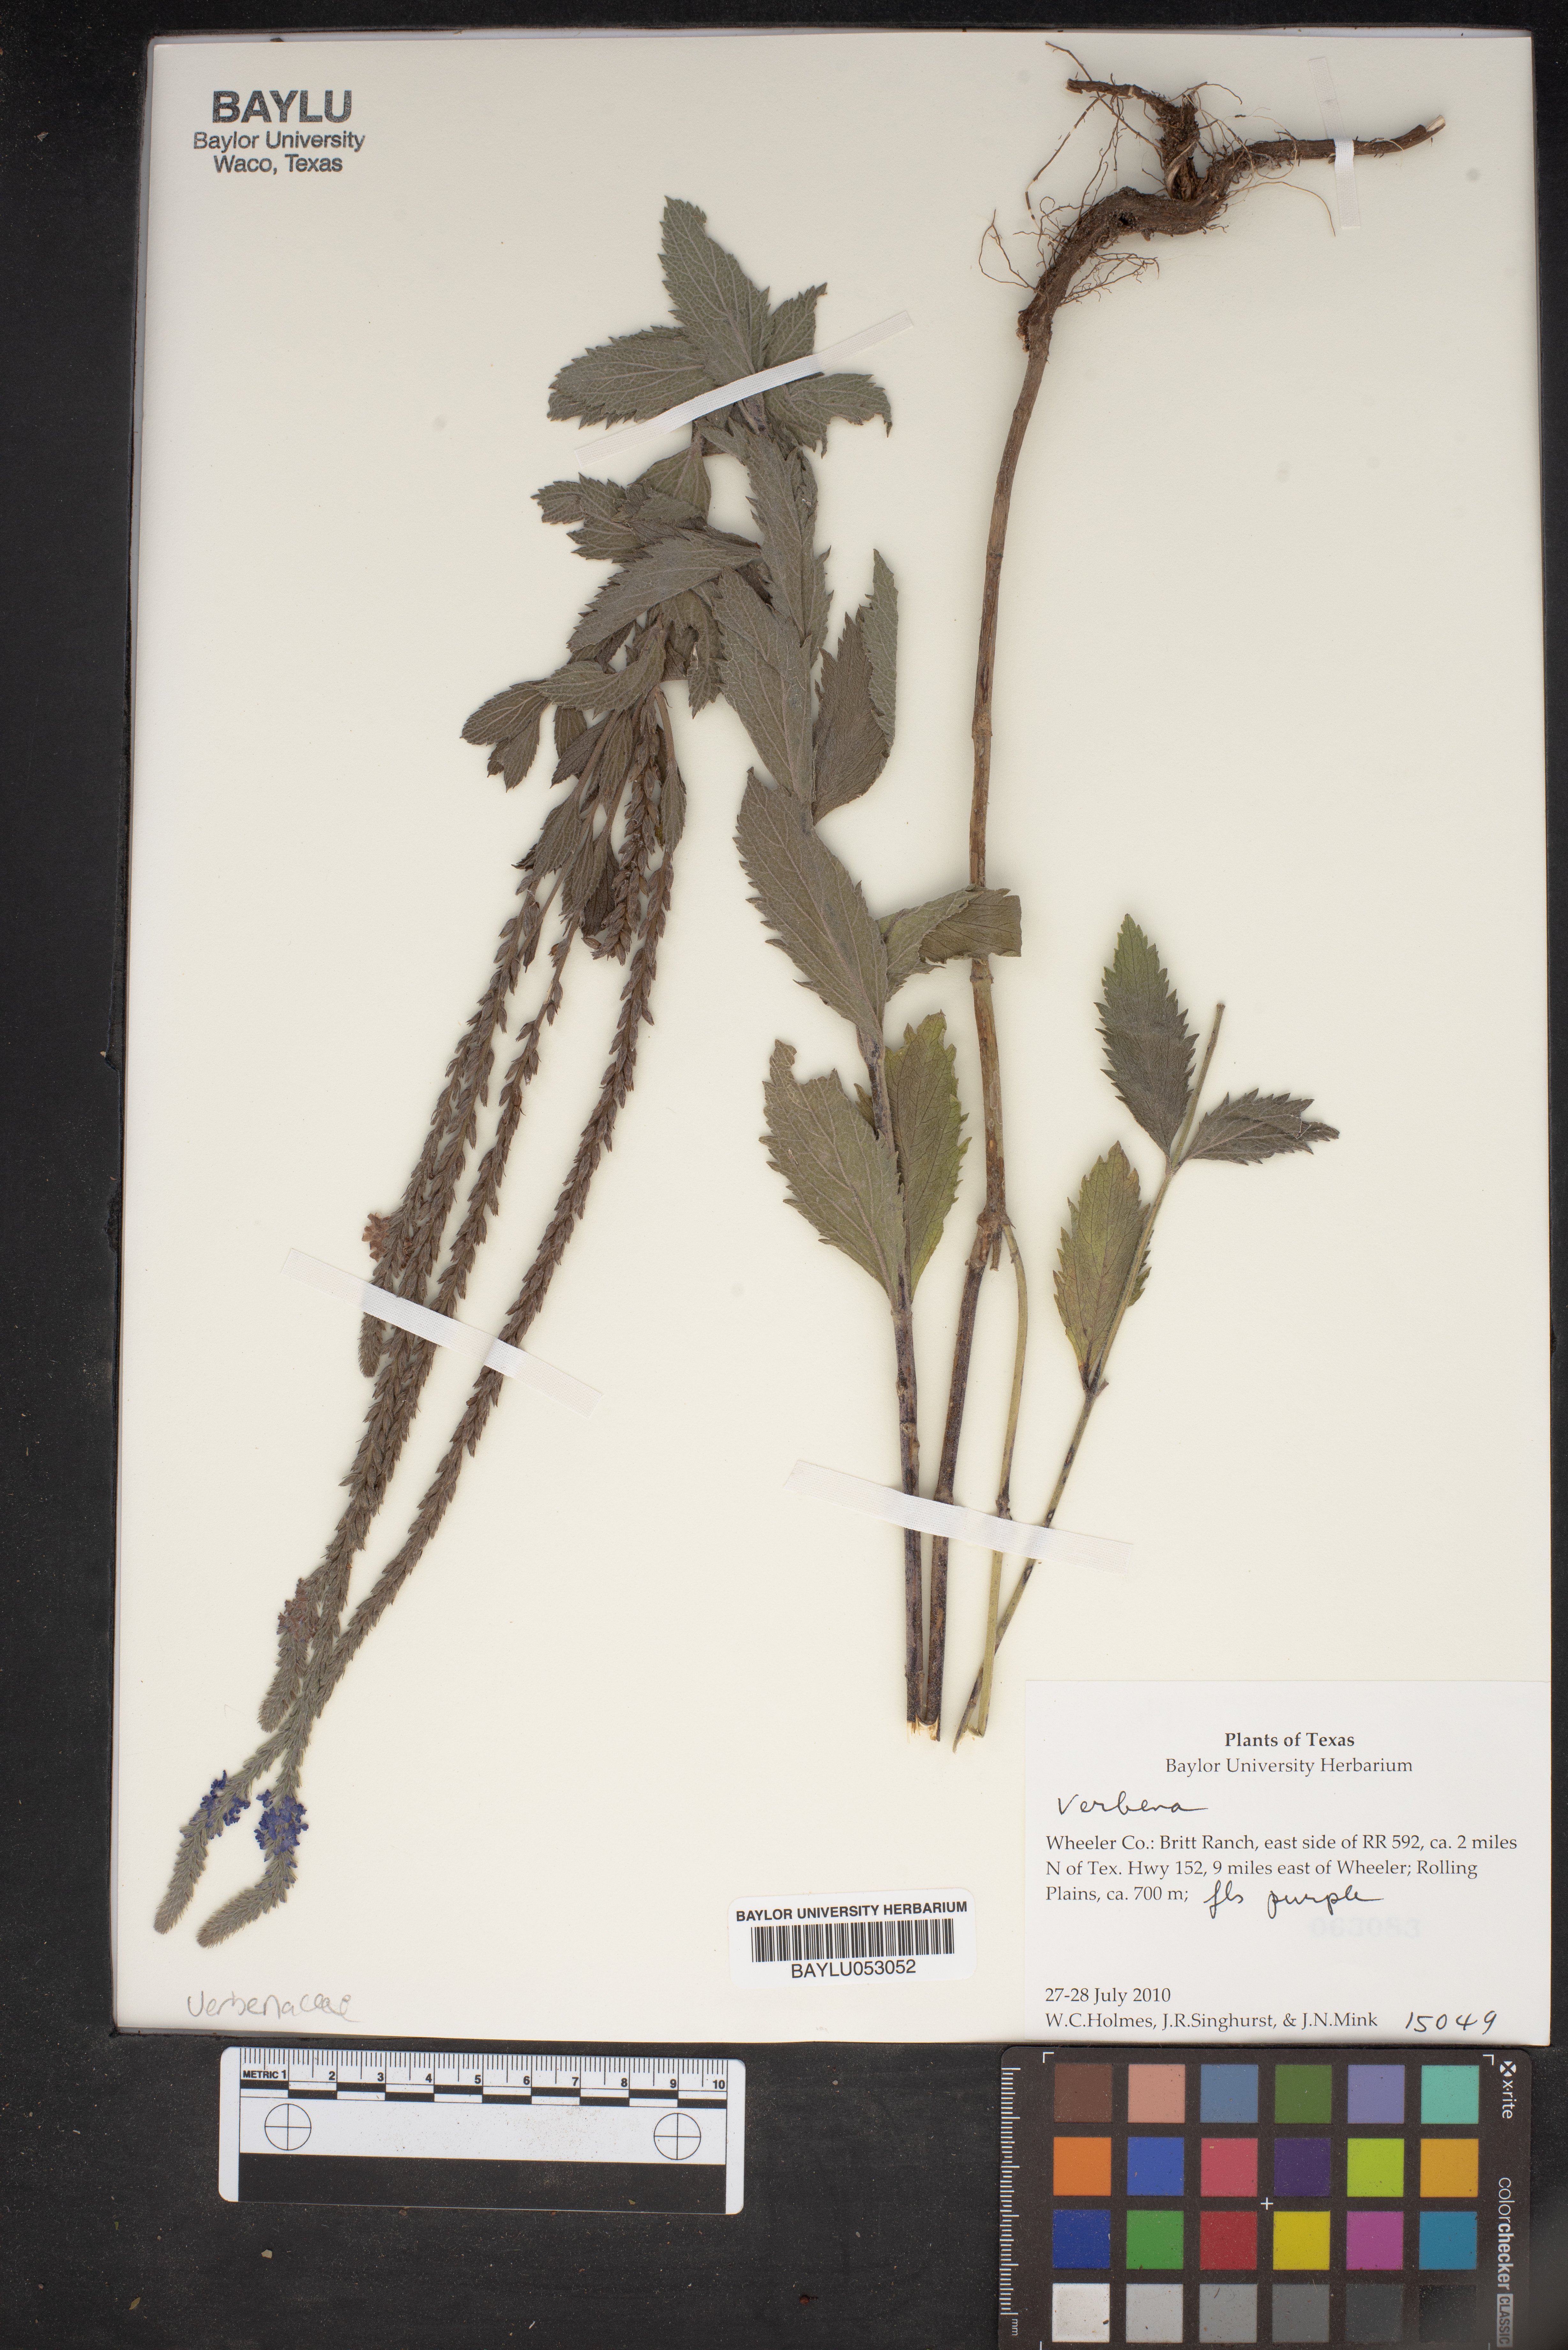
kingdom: Plantae
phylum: Tracheophyta
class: Magnoliopsida
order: Lamiales
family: Verbenaceae
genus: Verbena
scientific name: Verbena
